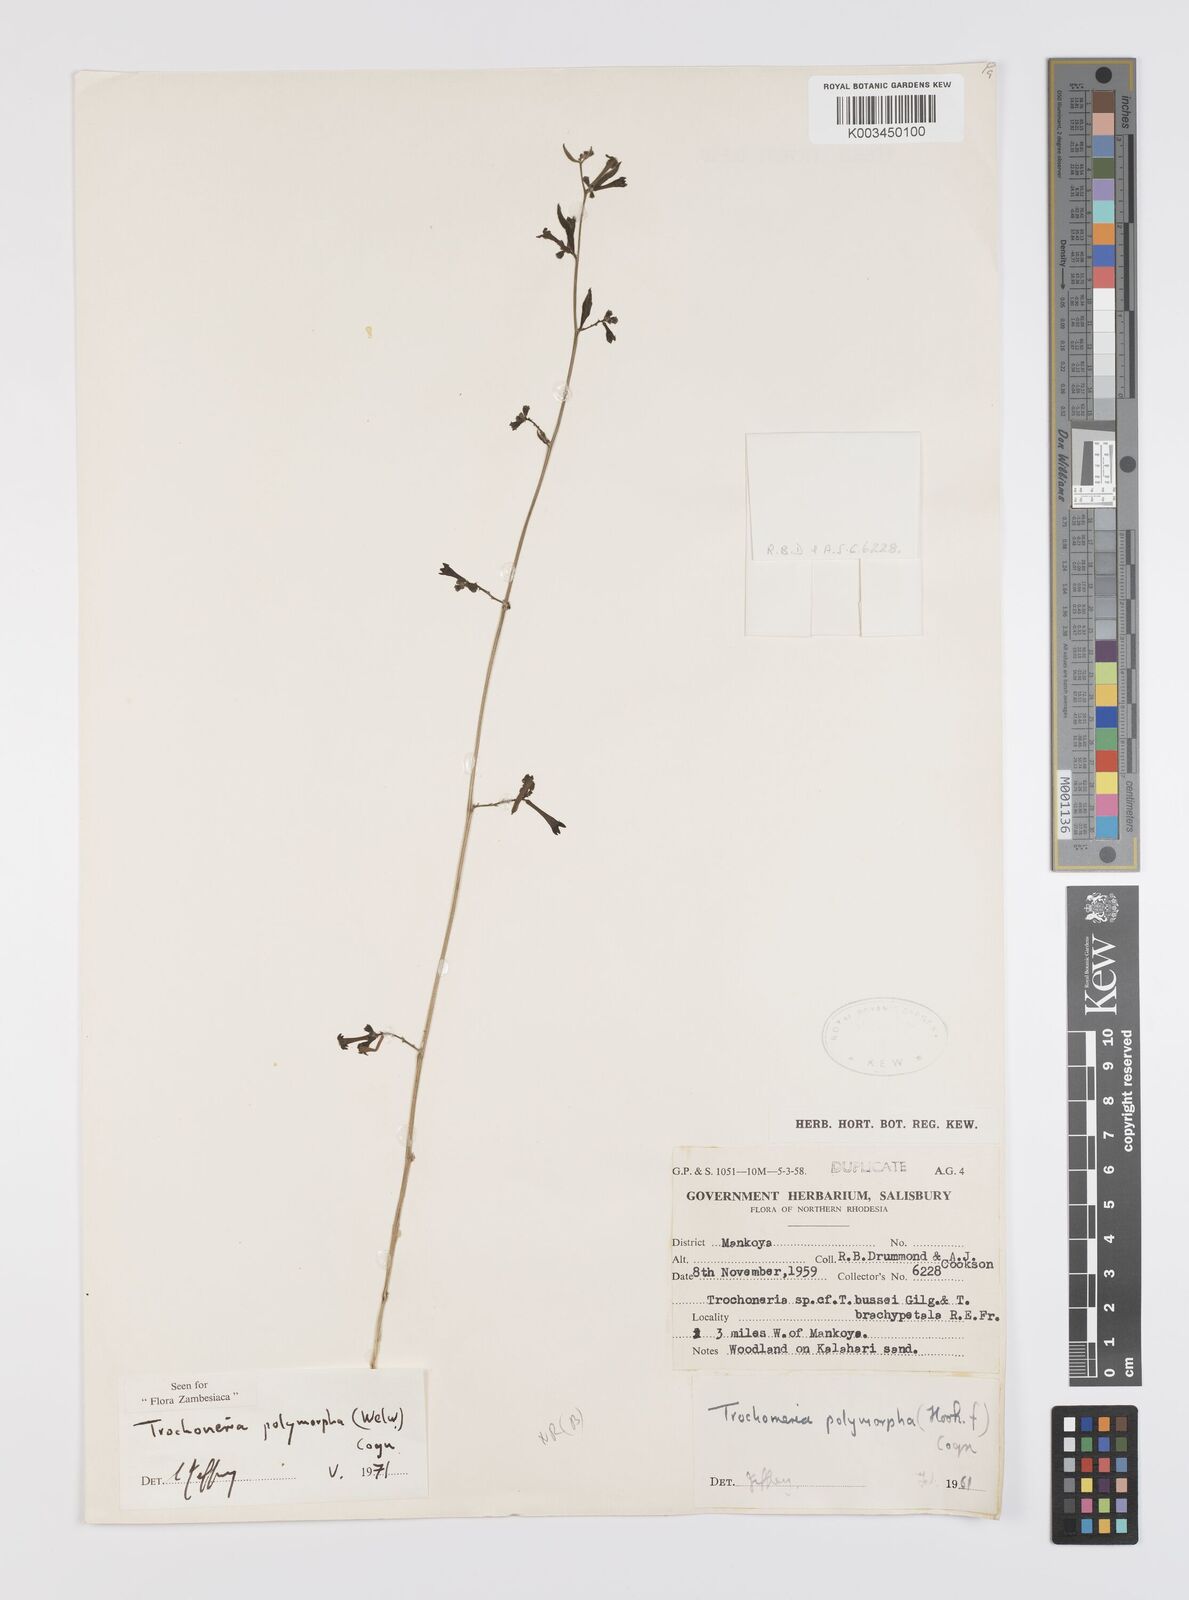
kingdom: Plantae
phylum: Tracheophyta
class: Magnoliopsida
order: Cucurbitales
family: Cucurbitaceae
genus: Trochomeria
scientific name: Trochomeria polymorpha
